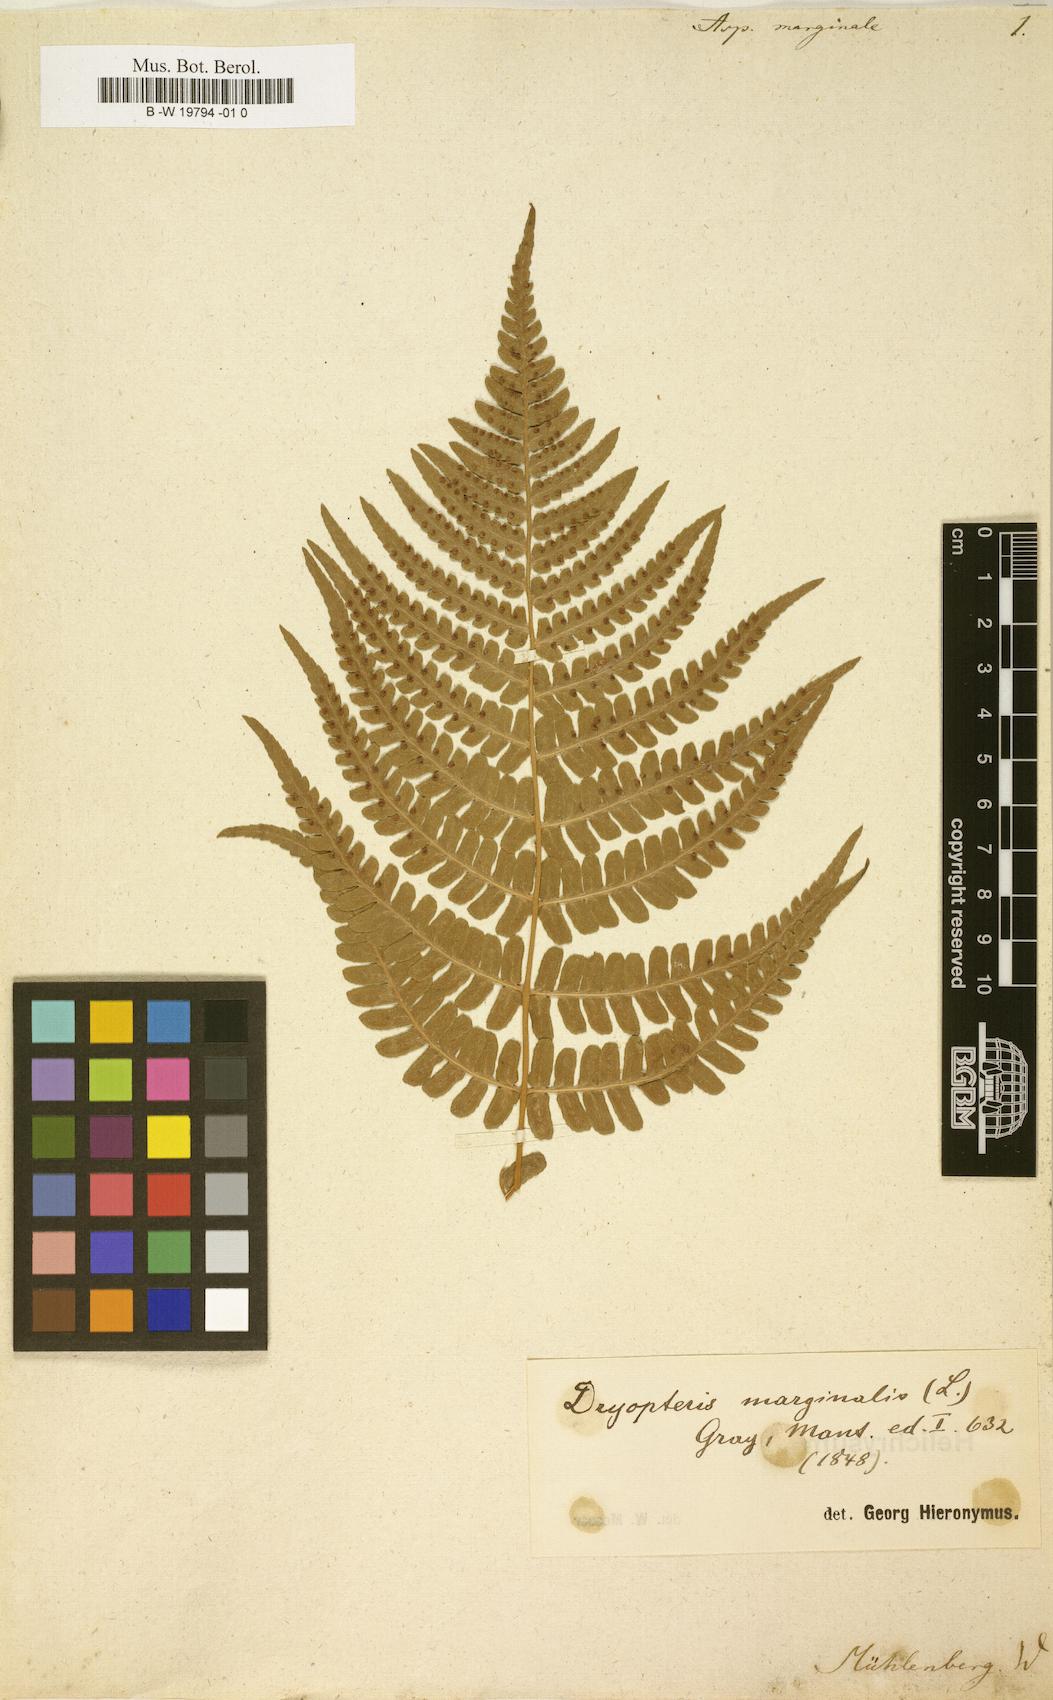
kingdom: Plantae
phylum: Tracheophyta
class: Polypodiopsida
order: Polypodiales
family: Dryopteridaceae
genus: Dryopteris
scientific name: Dryopteris marginalis
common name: Marginal wood fern
